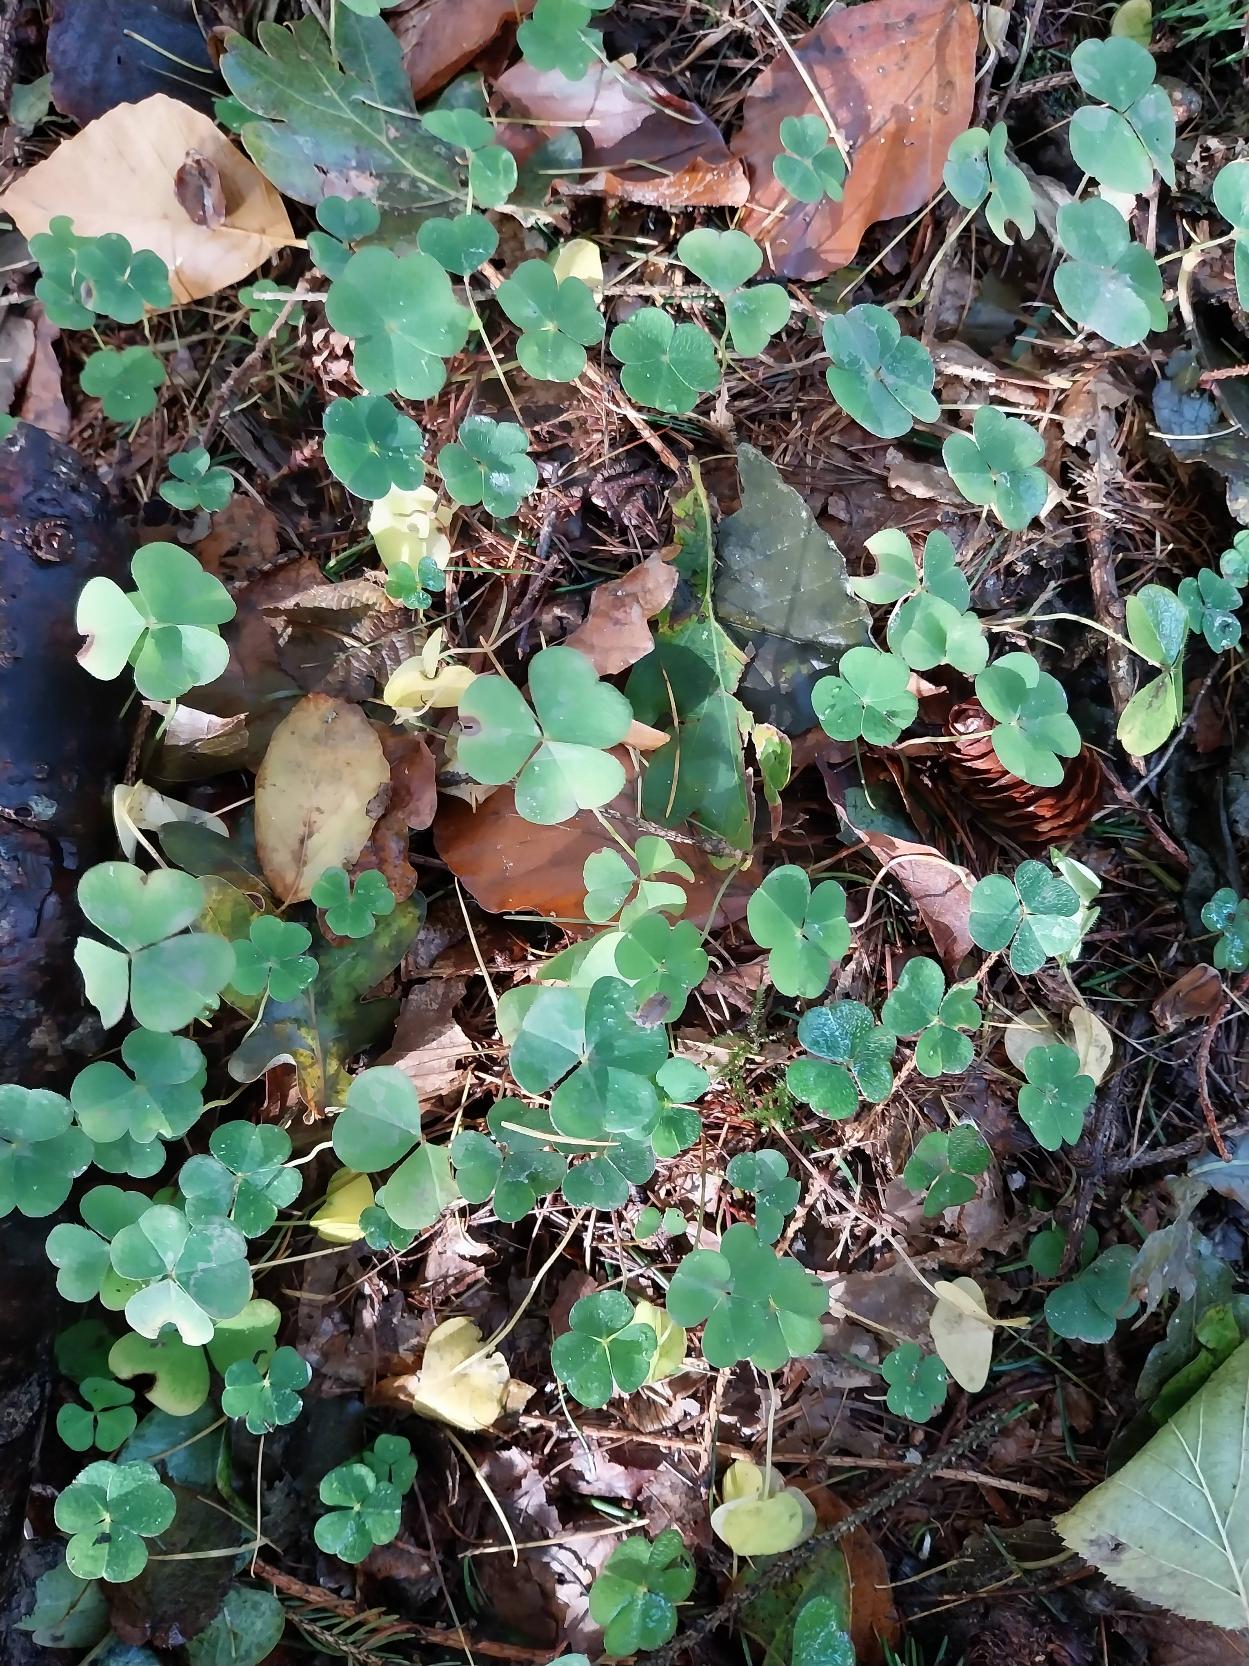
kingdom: Plantae
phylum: Tracheophyta
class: Magnoliopsida
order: Oxalidales
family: Oxalidaceae
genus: Oxalis
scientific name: Oxalis acetosella
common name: Skovsyre
